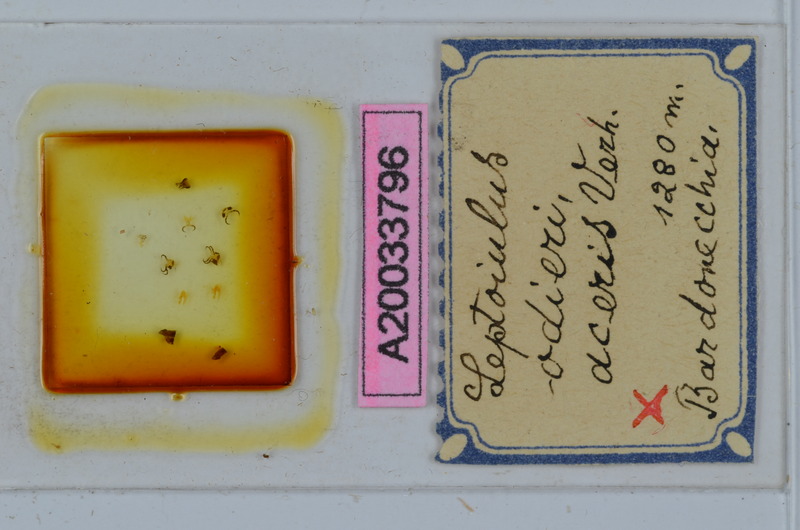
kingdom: Animalia
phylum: Arthropoda
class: Diplopoda
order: Julida
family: Julidae
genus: Leptoiulus
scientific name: Leptoiulus odieri
